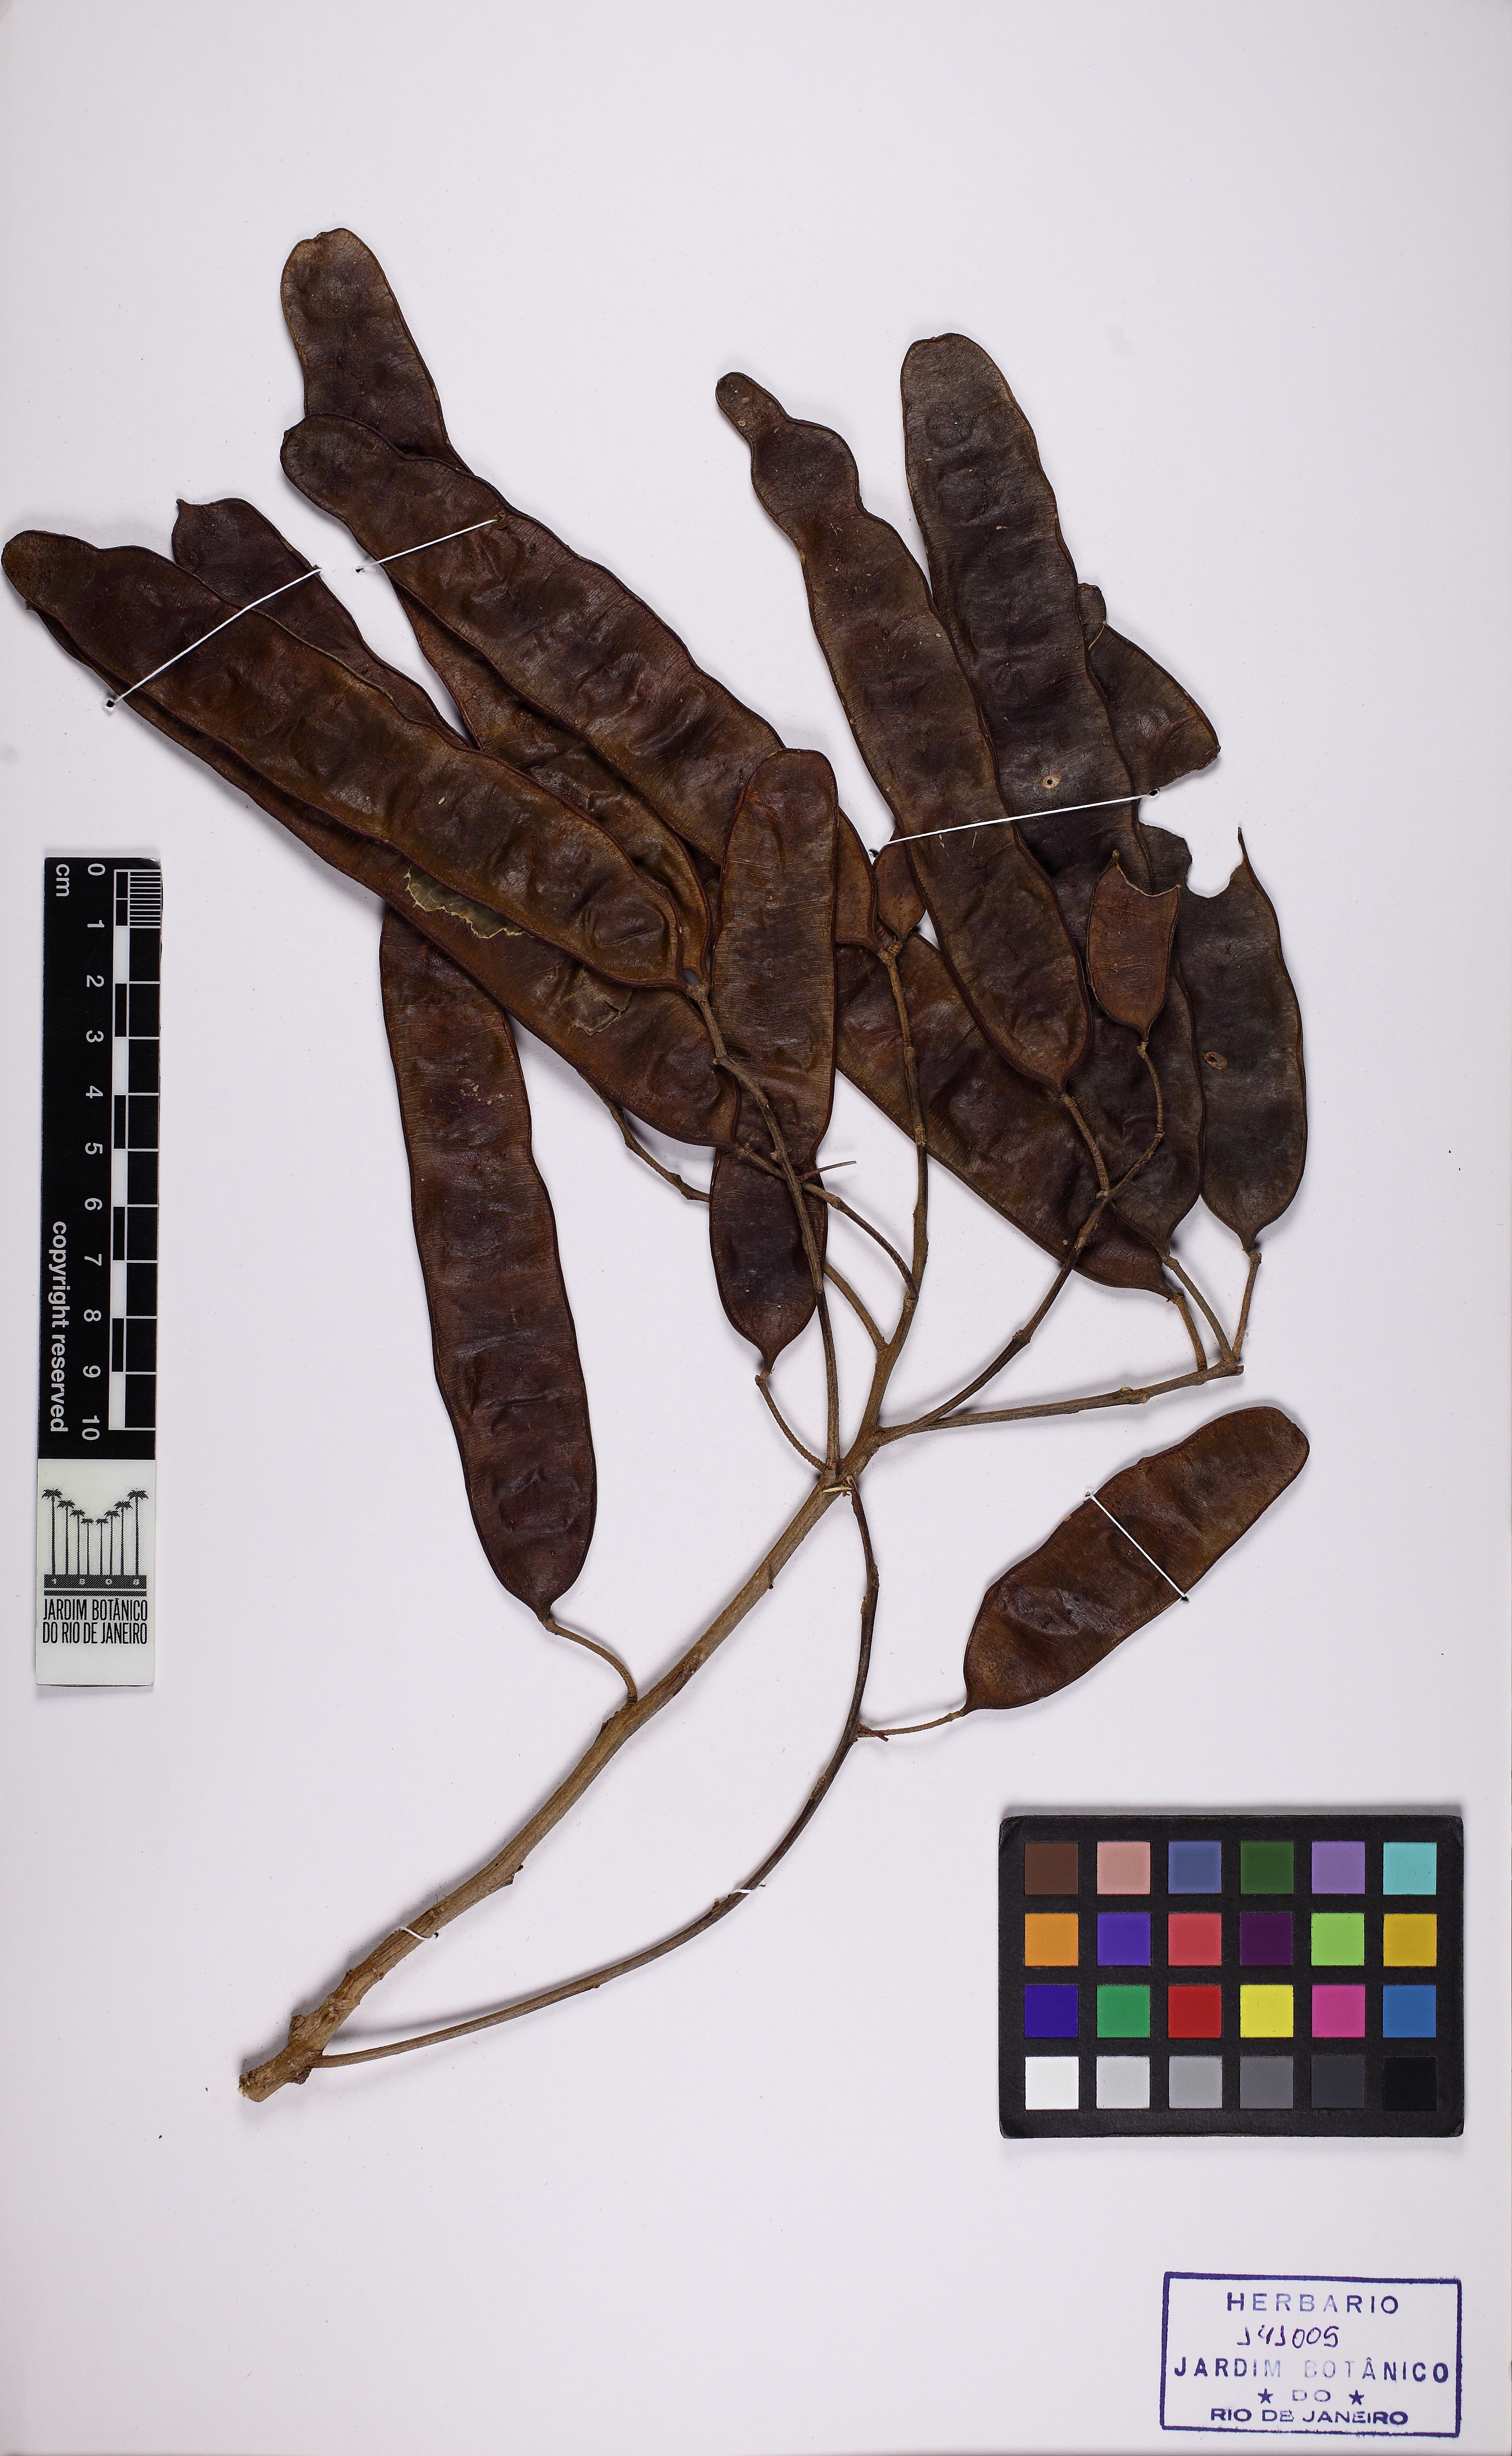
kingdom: Plantae
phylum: Tracheophyta
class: Magnoliopsida
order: Fabales
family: Fabaceae
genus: Albizia
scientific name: Albizia polycephala
